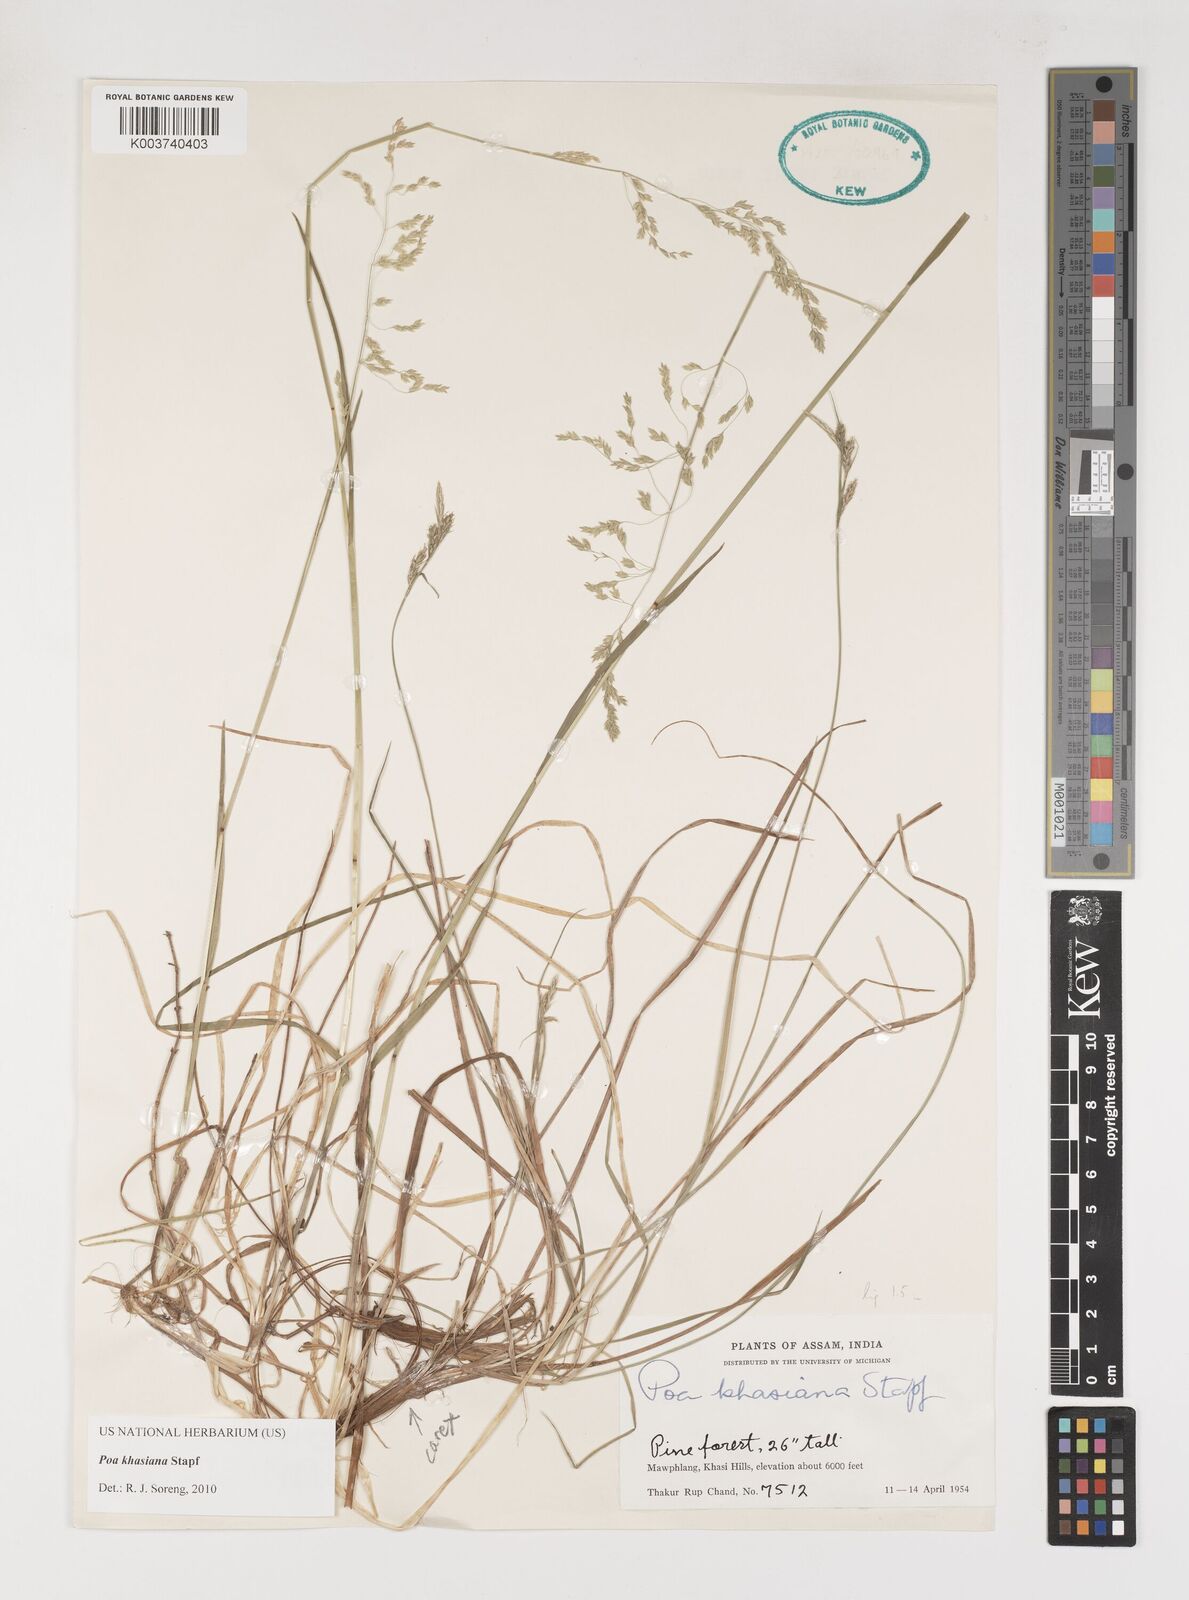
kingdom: Plantae
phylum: Tracheophyta
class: Liliopsida
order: Poales
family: Poaceae
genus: Poa
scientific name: Poa khasiana
